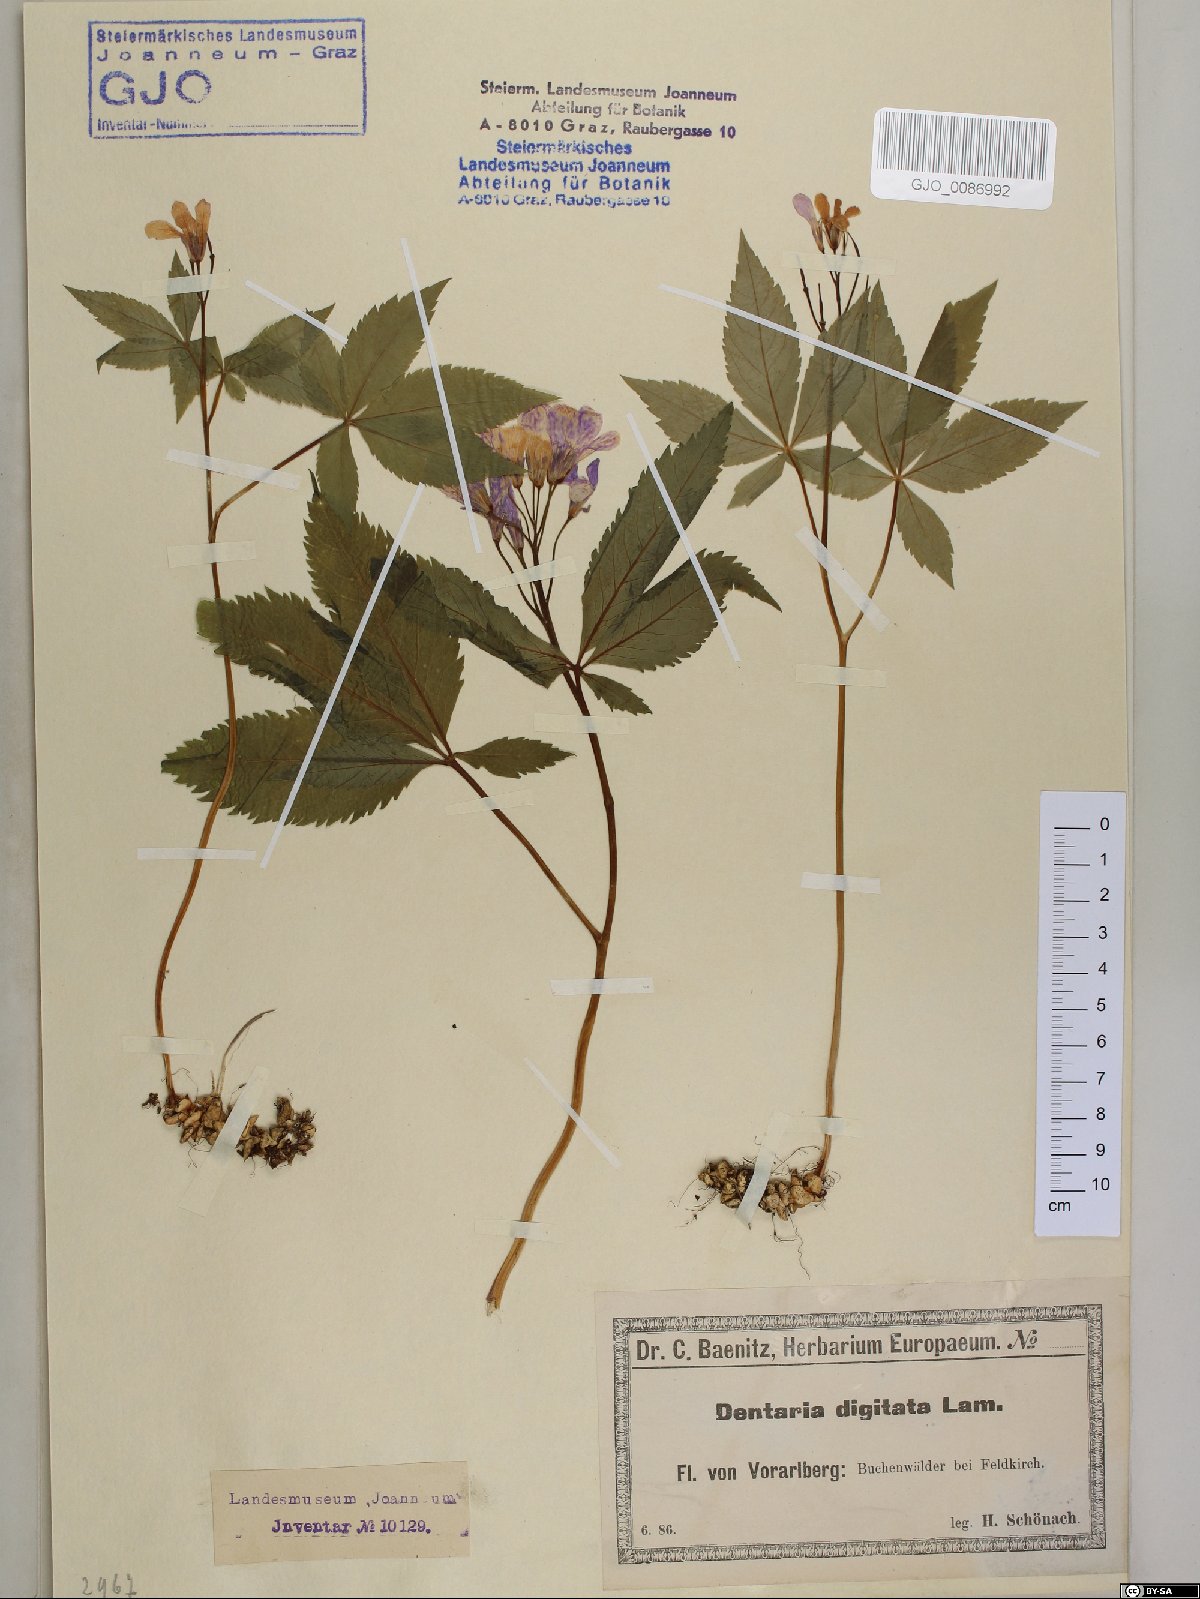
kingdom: Plantae
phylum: Tracheophyta
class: Magnoliopsida
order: Brassicales
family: Brassicaceae
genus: Cardamine
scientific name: Cardamine pentaphyllos
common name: Five-leaflet bitter-cress
